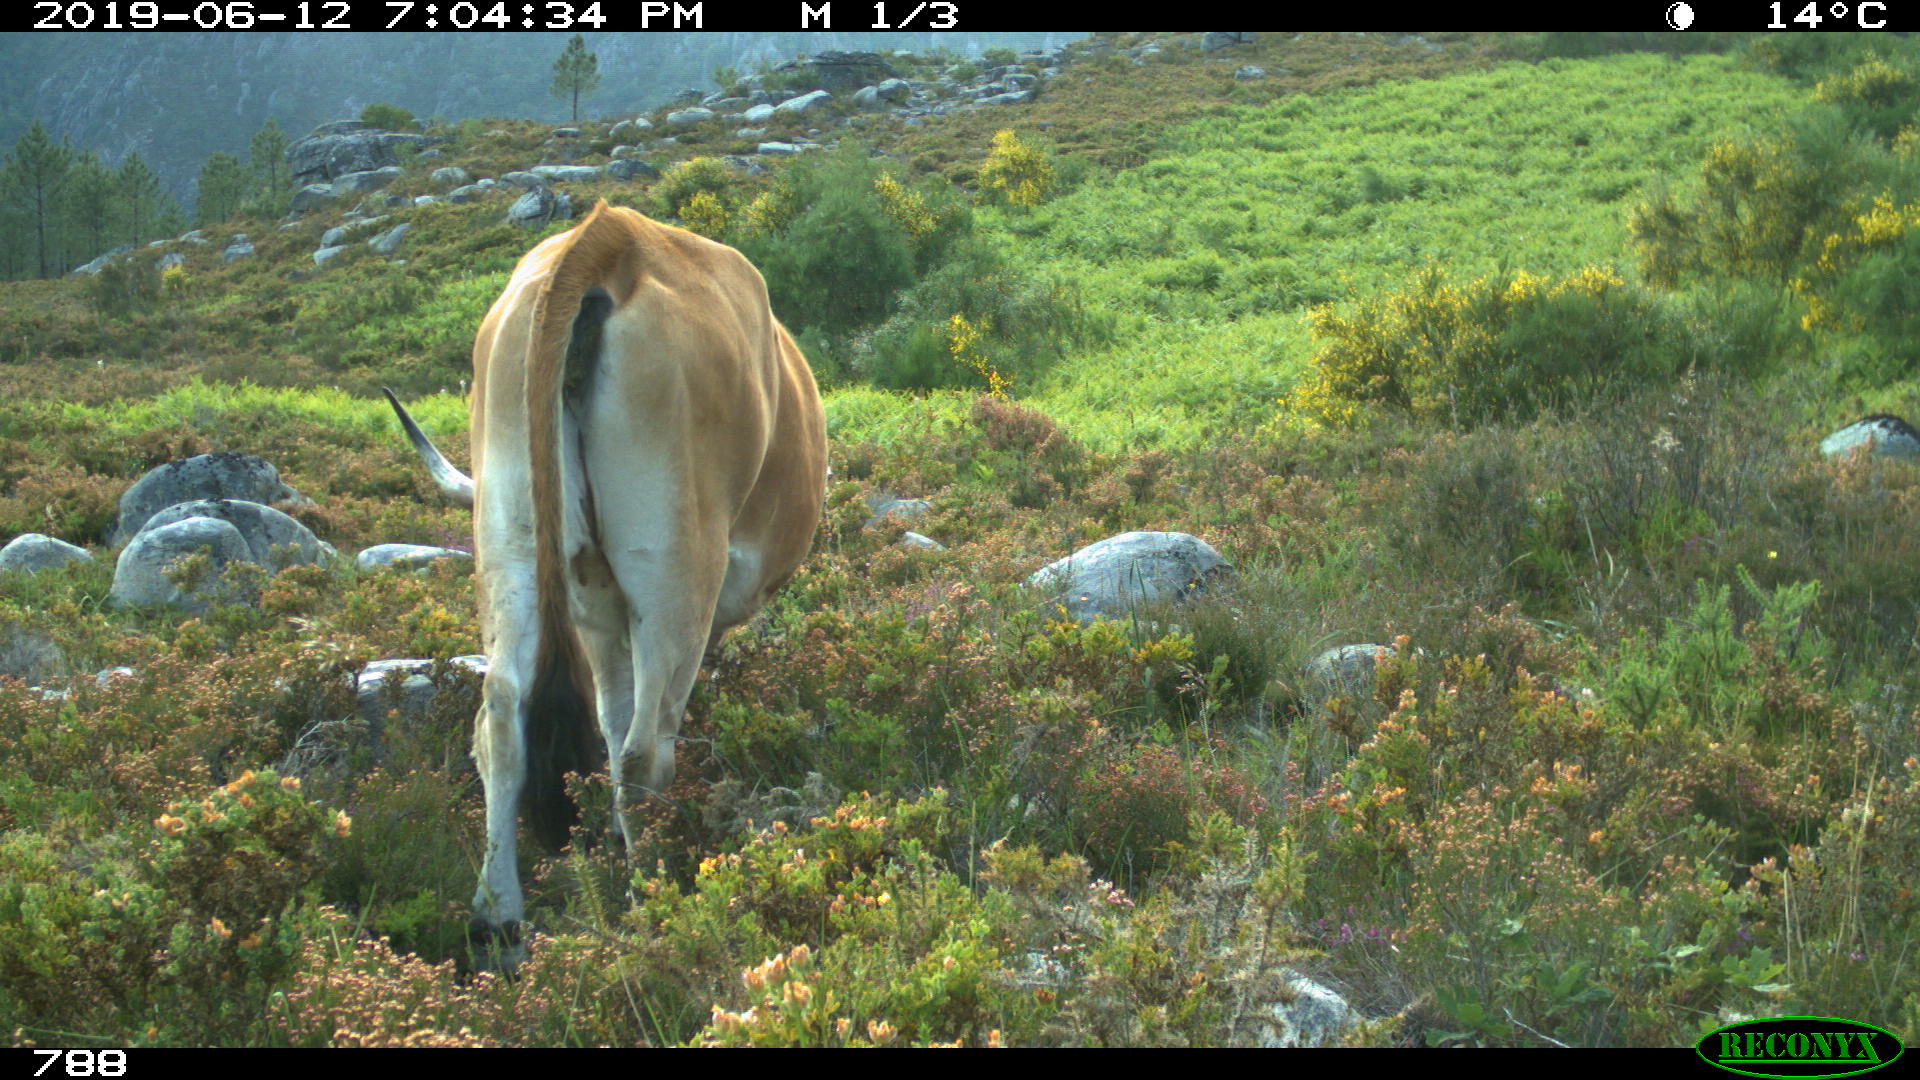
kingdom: Animalia
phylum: Chordata
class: Mammalia
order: Artiodactyla
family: Bovidae
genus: Bos
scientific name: Bos taurus
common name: Domesticated cattle
